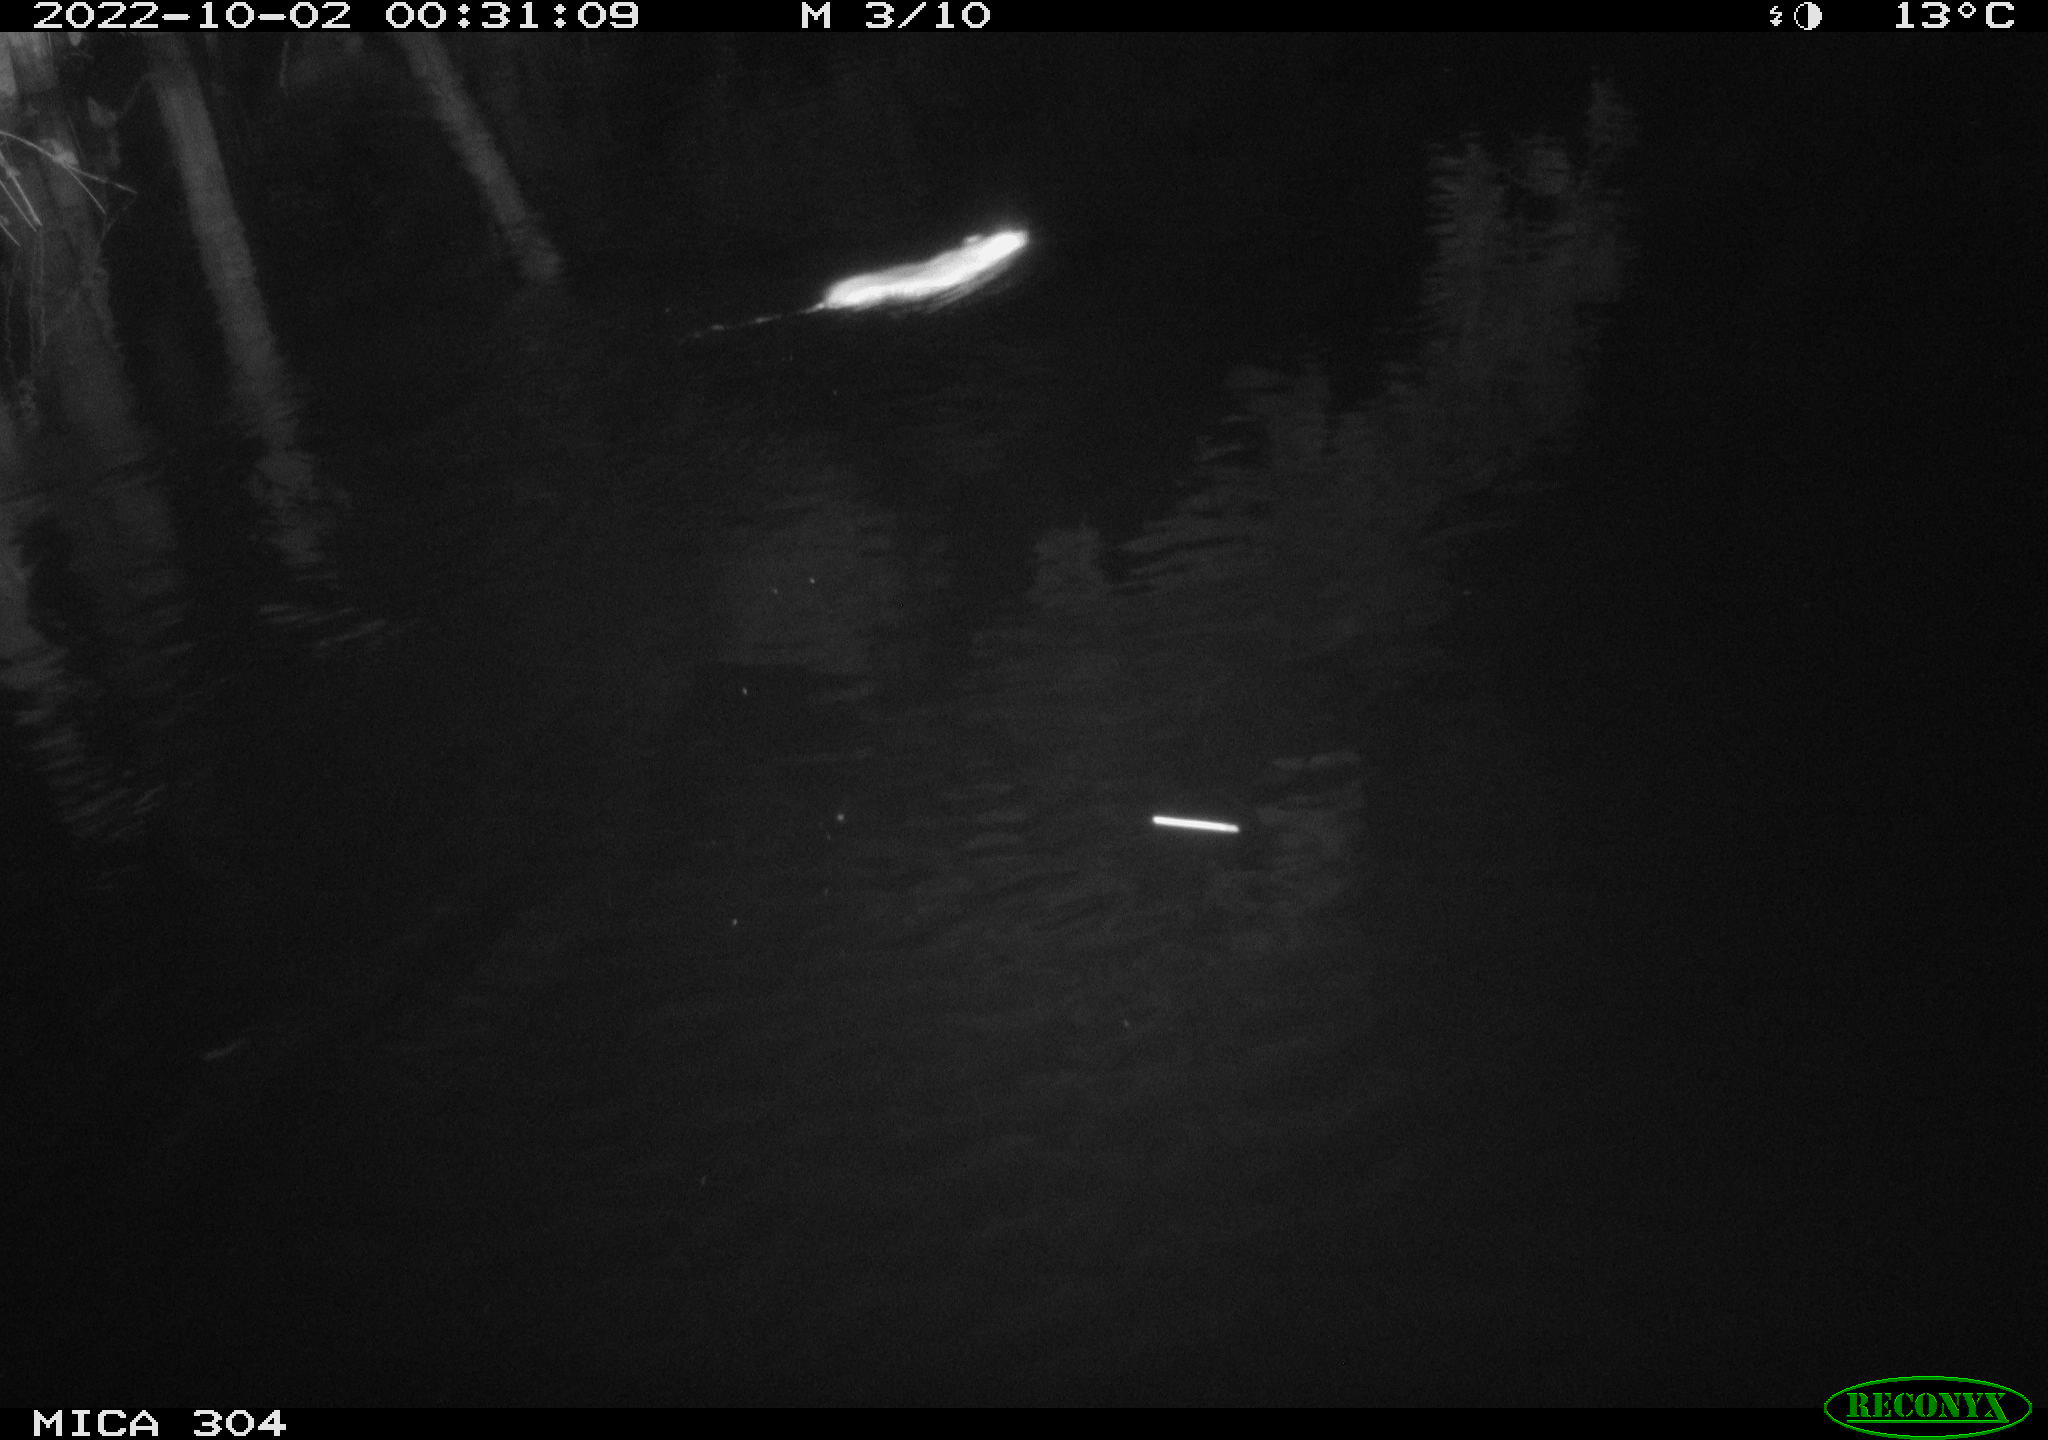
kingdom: Animalia
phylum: Chordata
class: Mammalia
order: Rodentia
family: Muridae
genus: Rattus
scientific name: Rattus norvegicus
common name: Brown rat
